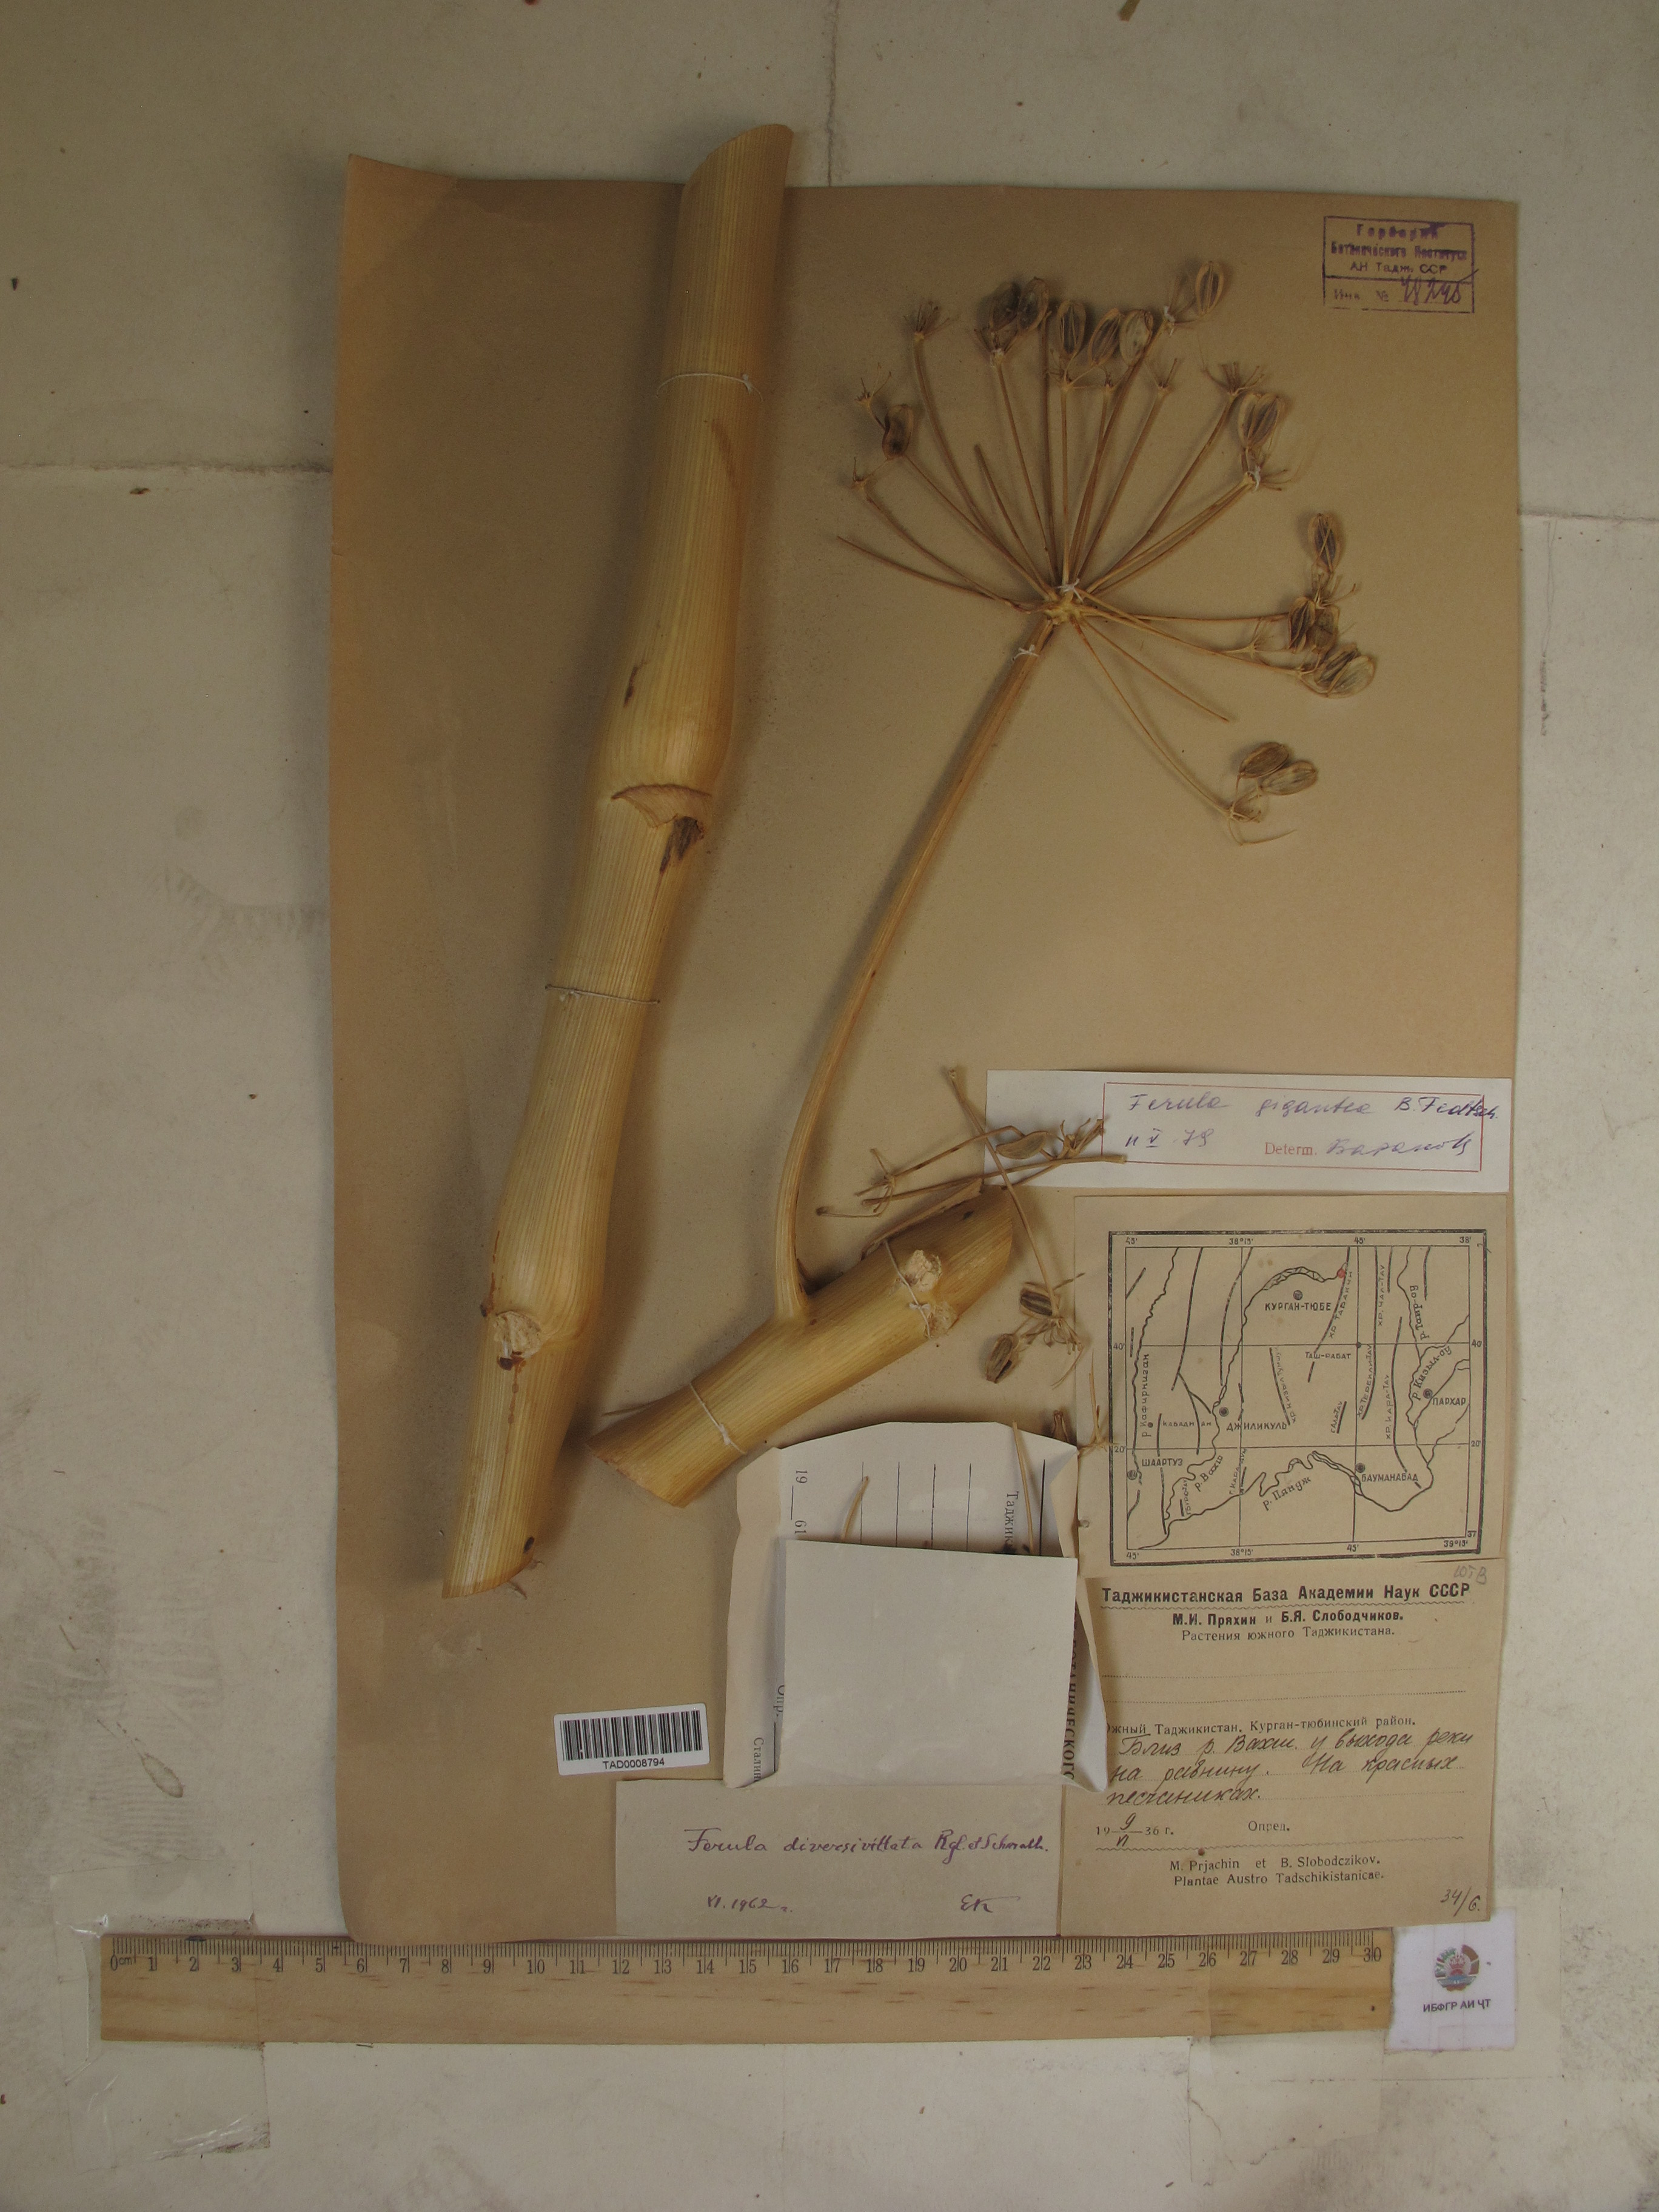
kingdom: Plantae
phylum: Tracheophyta
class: Magnoliopsida
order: Apiales
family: Apiaceae
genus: Ferula
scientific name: Ferula gigantea
